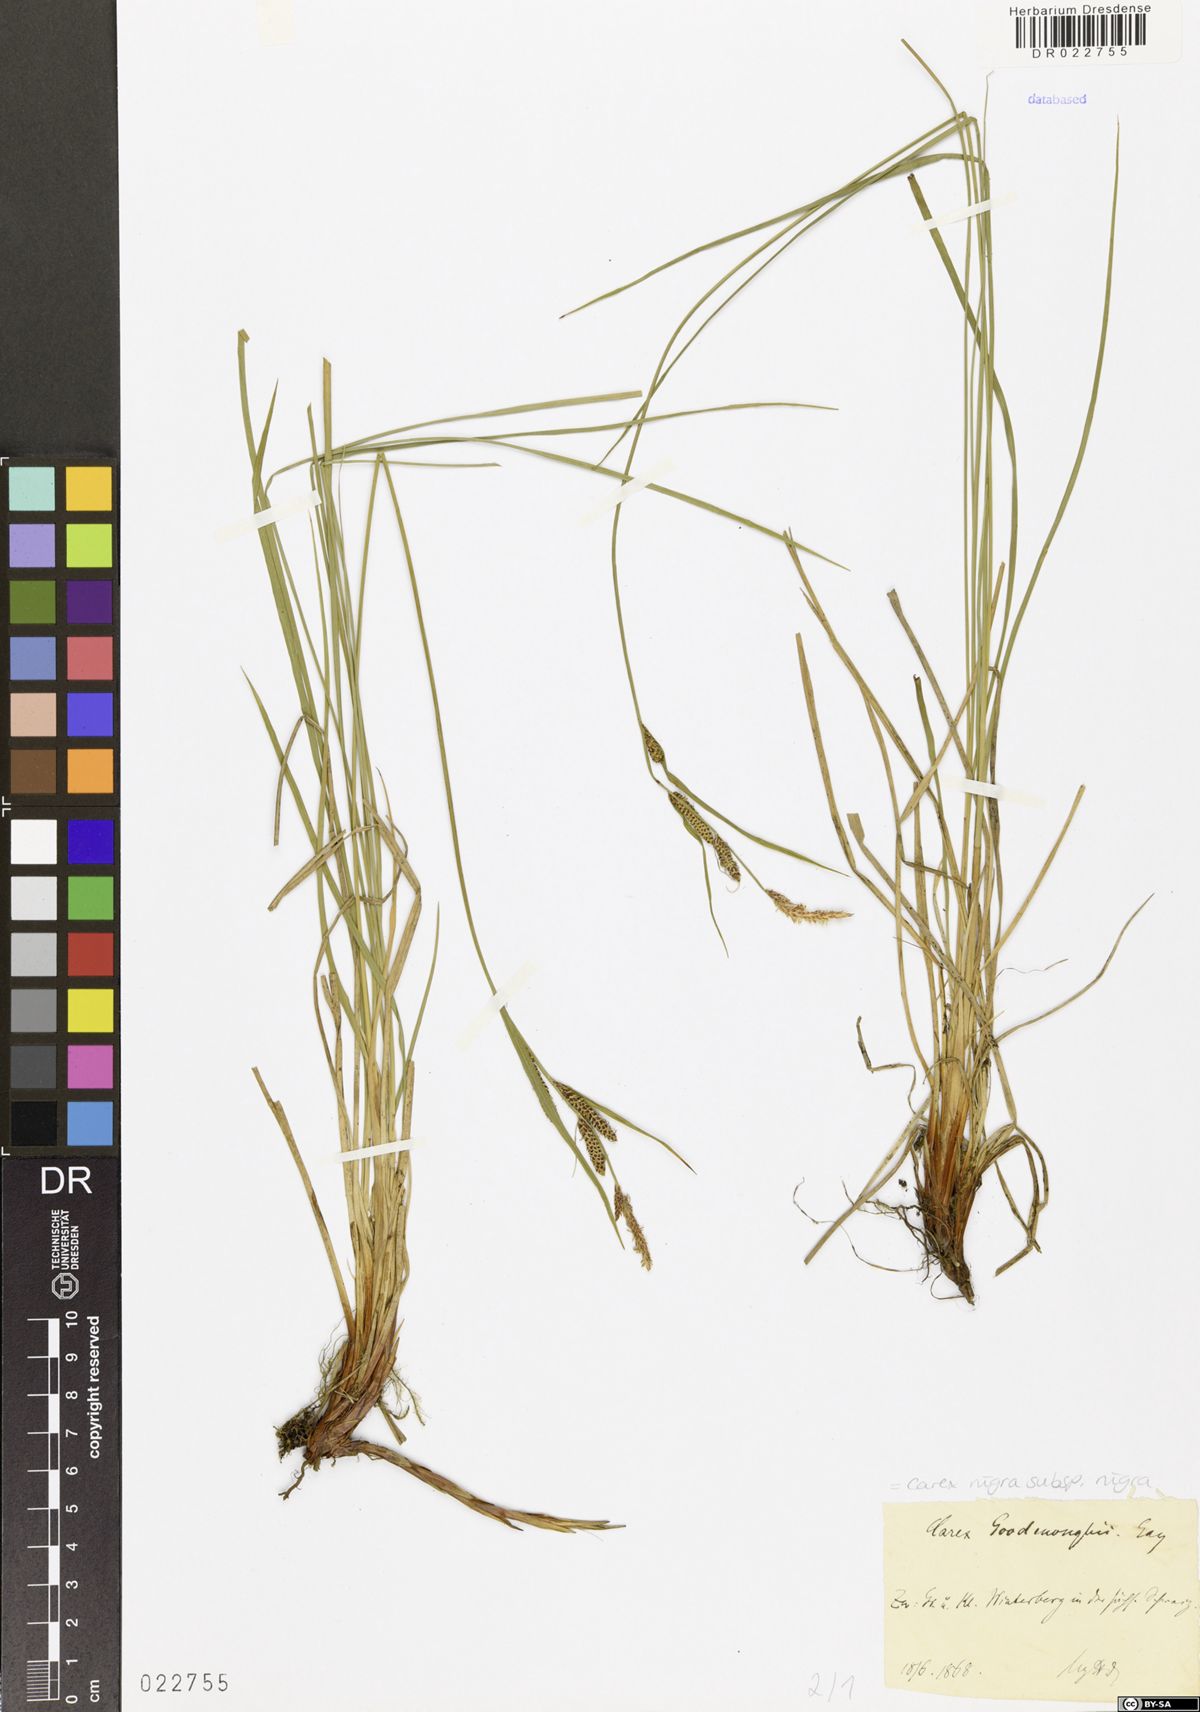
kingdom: Plantae
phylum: Tracheophyta
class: Liliopsida
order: Poales
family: Cyperaceae
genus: Carex
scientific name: Carex nigra
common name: Common sedge
